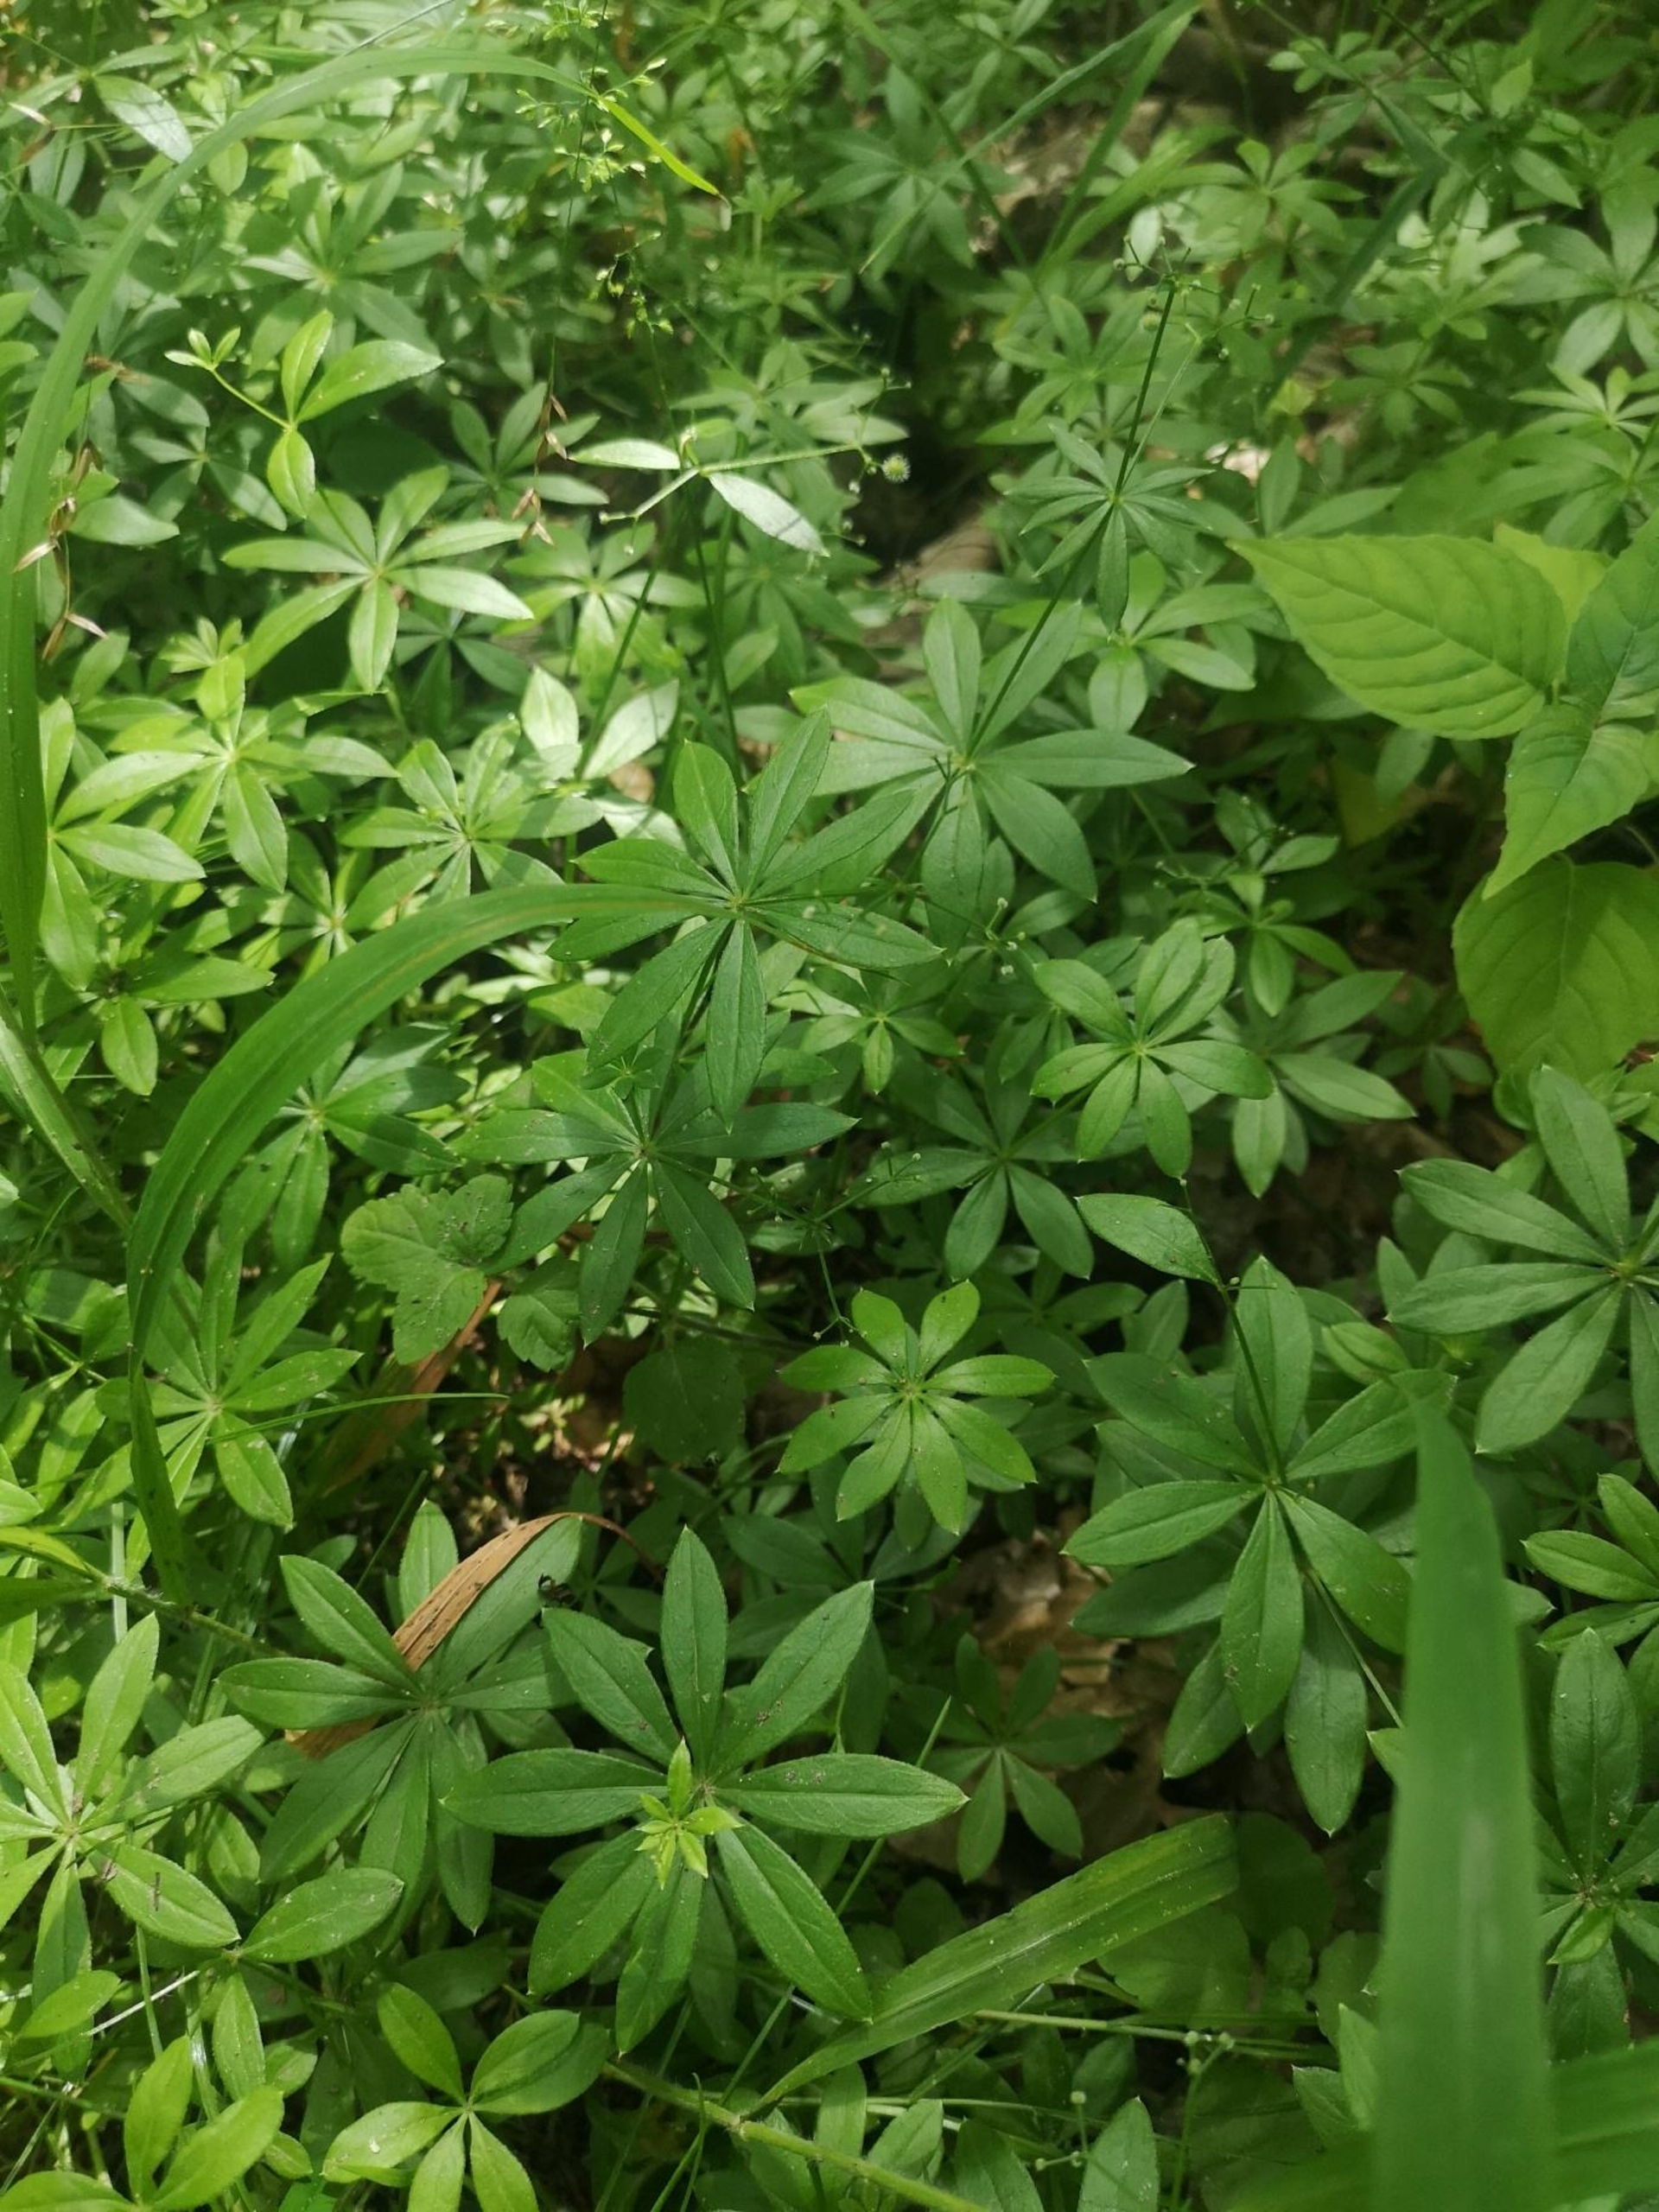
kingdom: Plantae
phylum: Tracheophyta
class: Magnoliopsida
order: Gentianales
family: Rubiaceae
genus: Galium
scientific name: Galium odoratum
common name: Skovmærke
